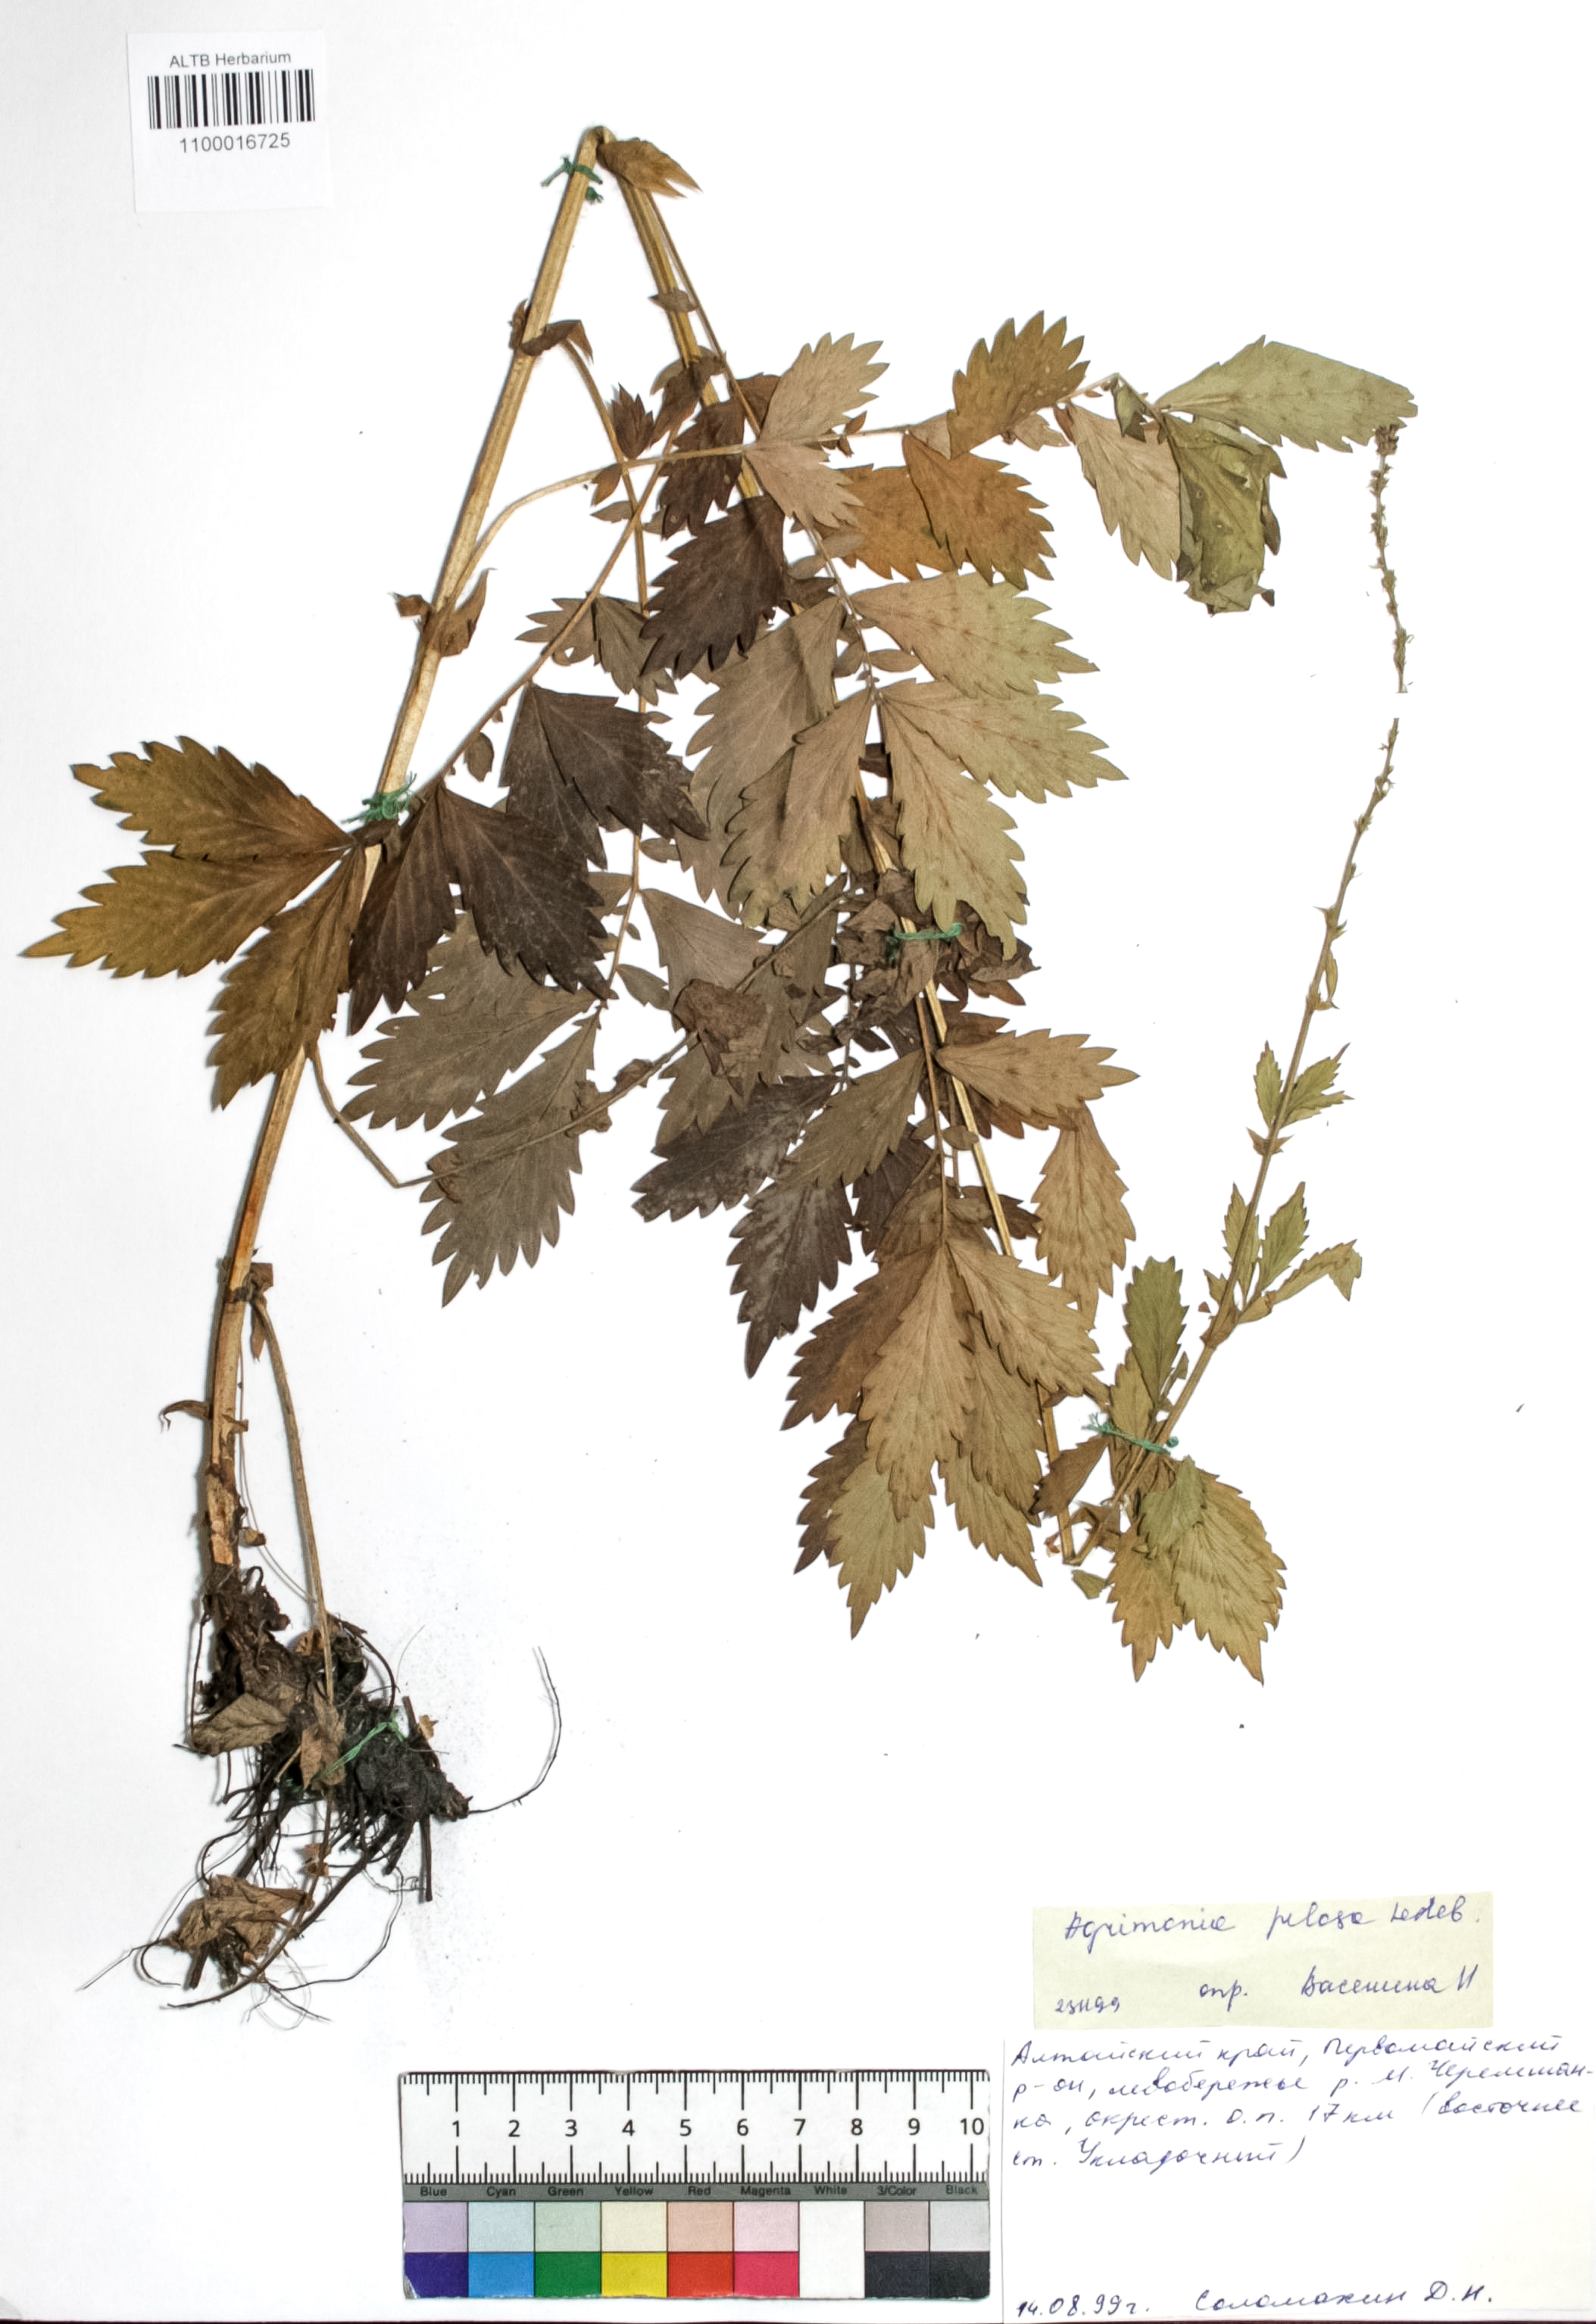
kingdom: Plantae
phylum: Tracheophyta
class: Magnoliopsida
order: Rosales
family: Rosaceae
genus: Agrimonia
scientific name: Agrimonia pilosa
